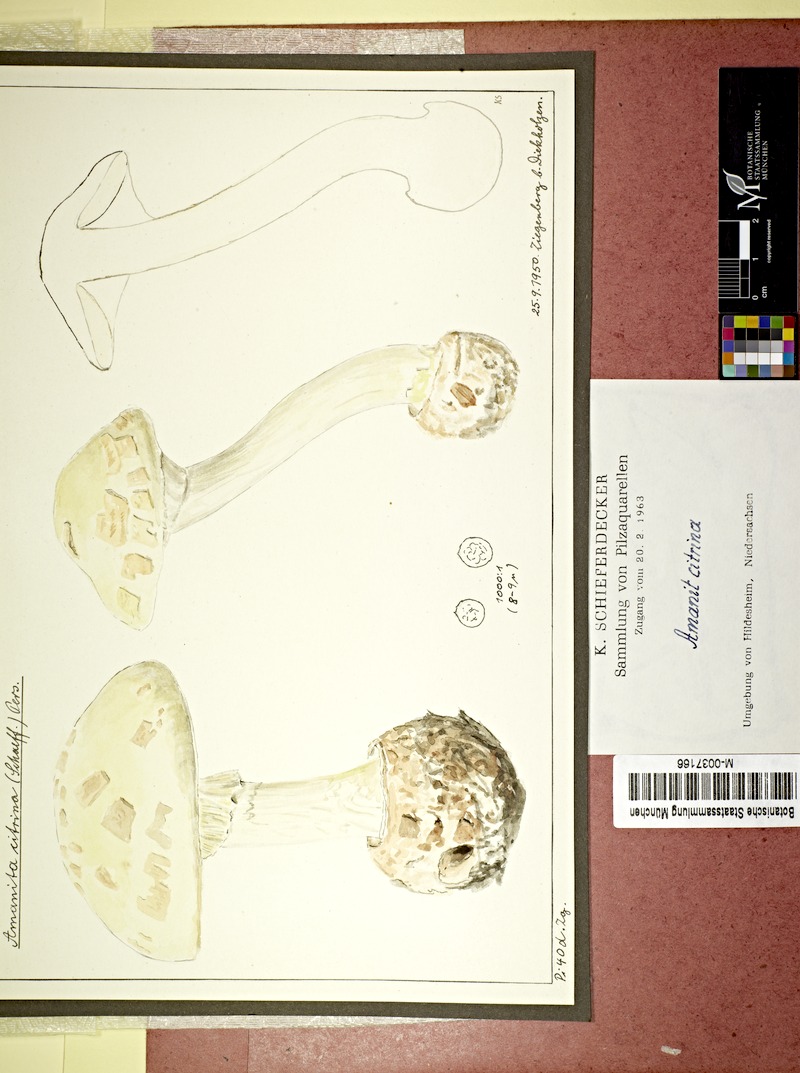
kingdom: Fungi
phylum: Basidiomycota
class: Agaricomycetes
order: Agaricales
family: Amanitaceae
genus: Amanita
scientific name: Amanita citrina
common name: False death-cap
